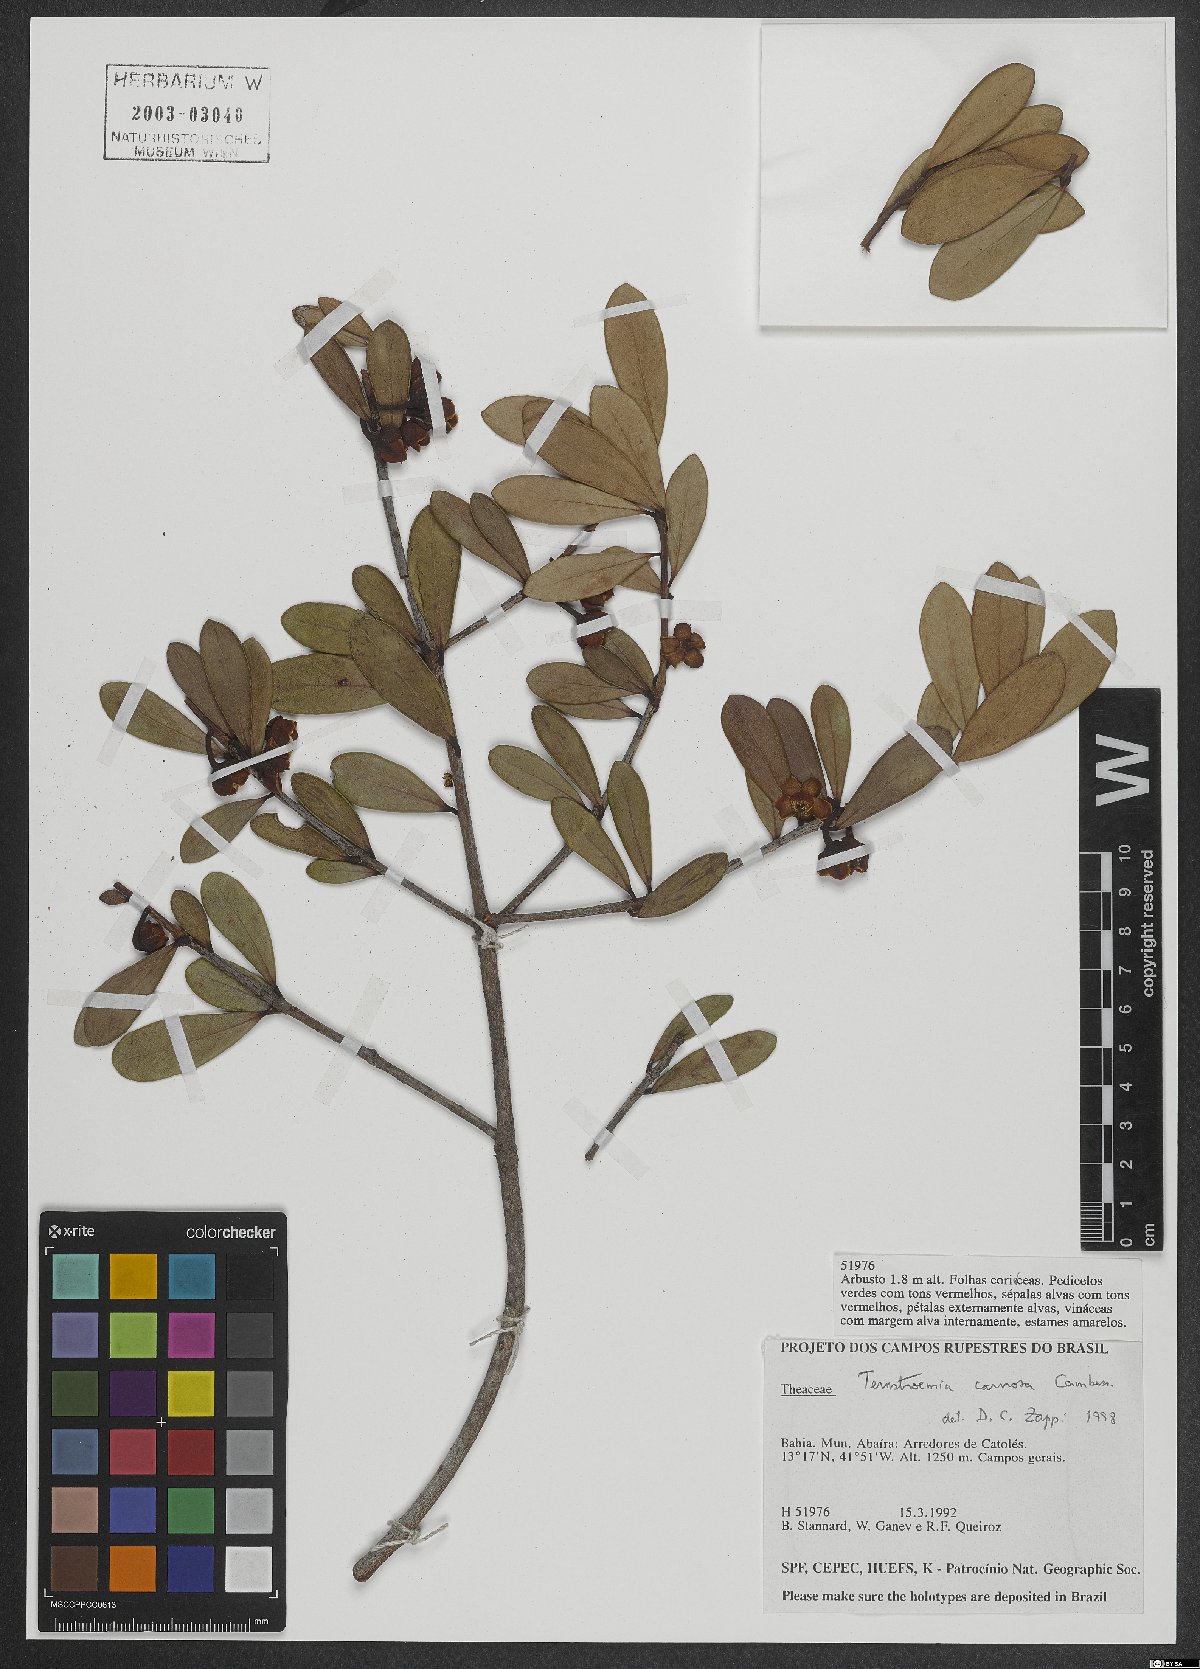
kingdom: Plantae
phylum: Tracheophyta
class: Magnoliopsida
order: Ericales
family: Pentaphylacaceae
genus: Ternstroemia
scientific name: Ternstroemia carnosa
